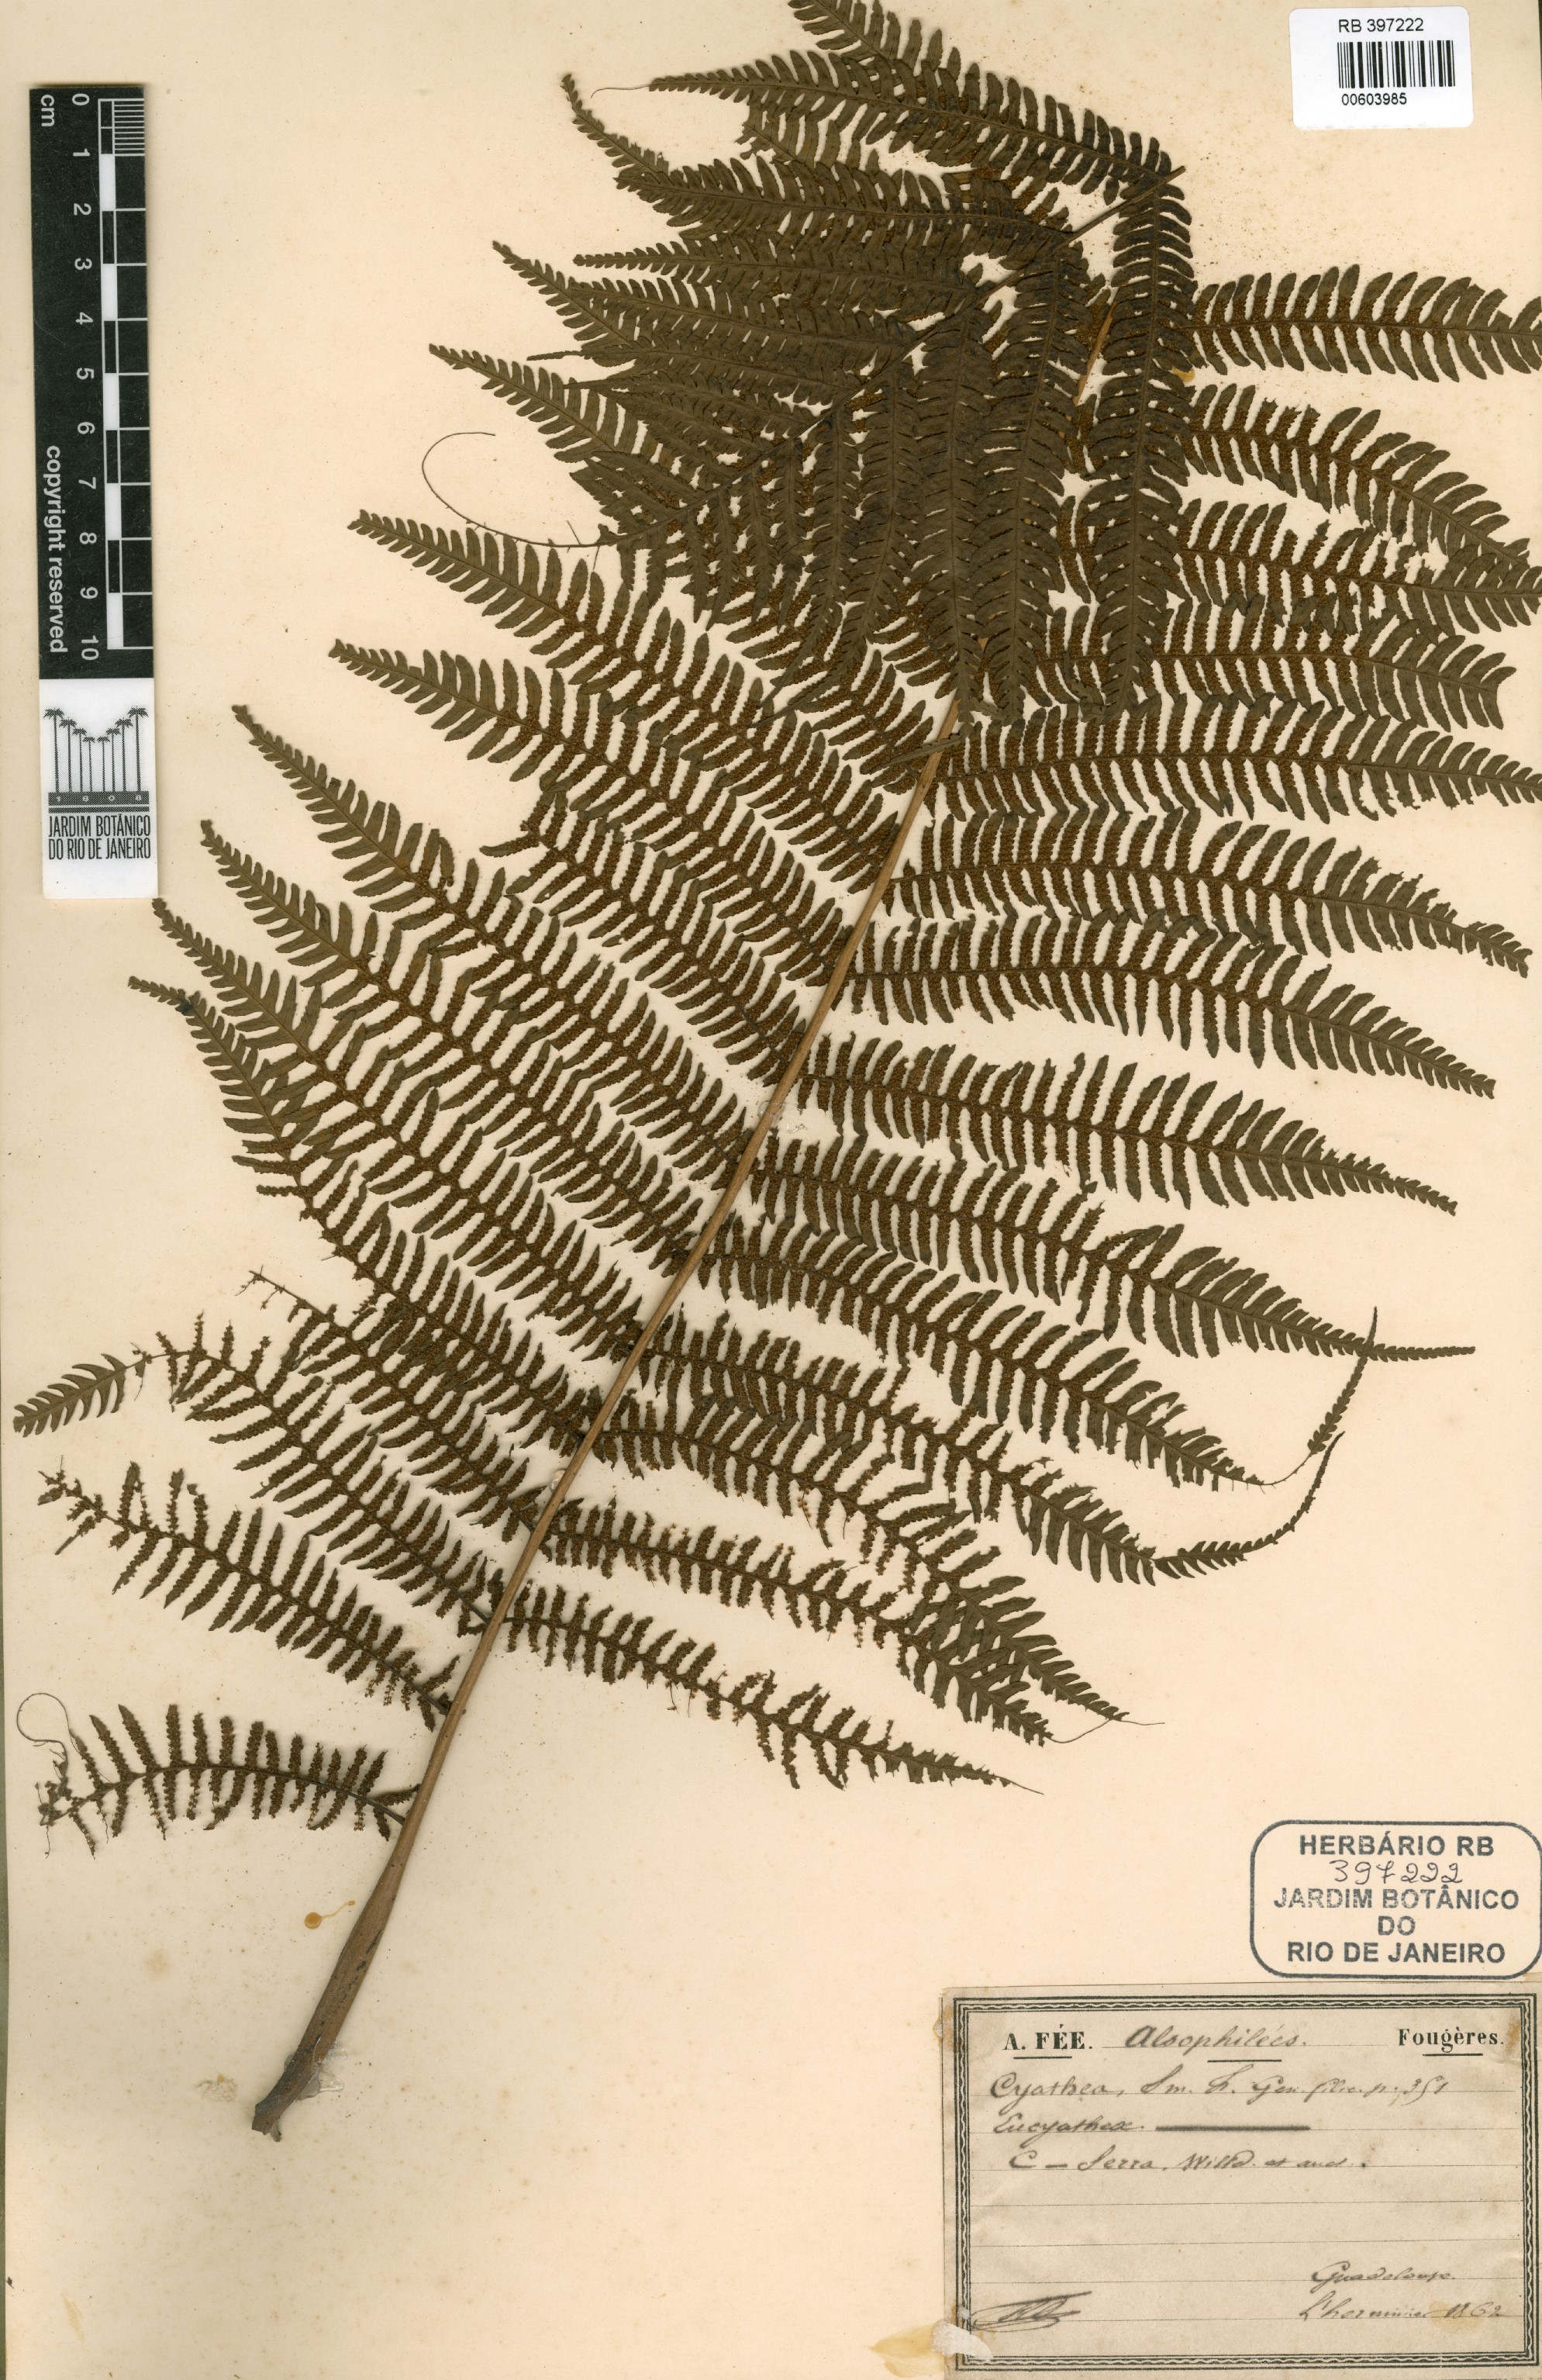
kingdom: Plantae
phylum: Tracheophyta
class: Polypodiopsida
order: Cyatheales
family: Cyatheaceae
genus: Cyathea
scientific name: Cyathea arborea
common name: West indian treefern
